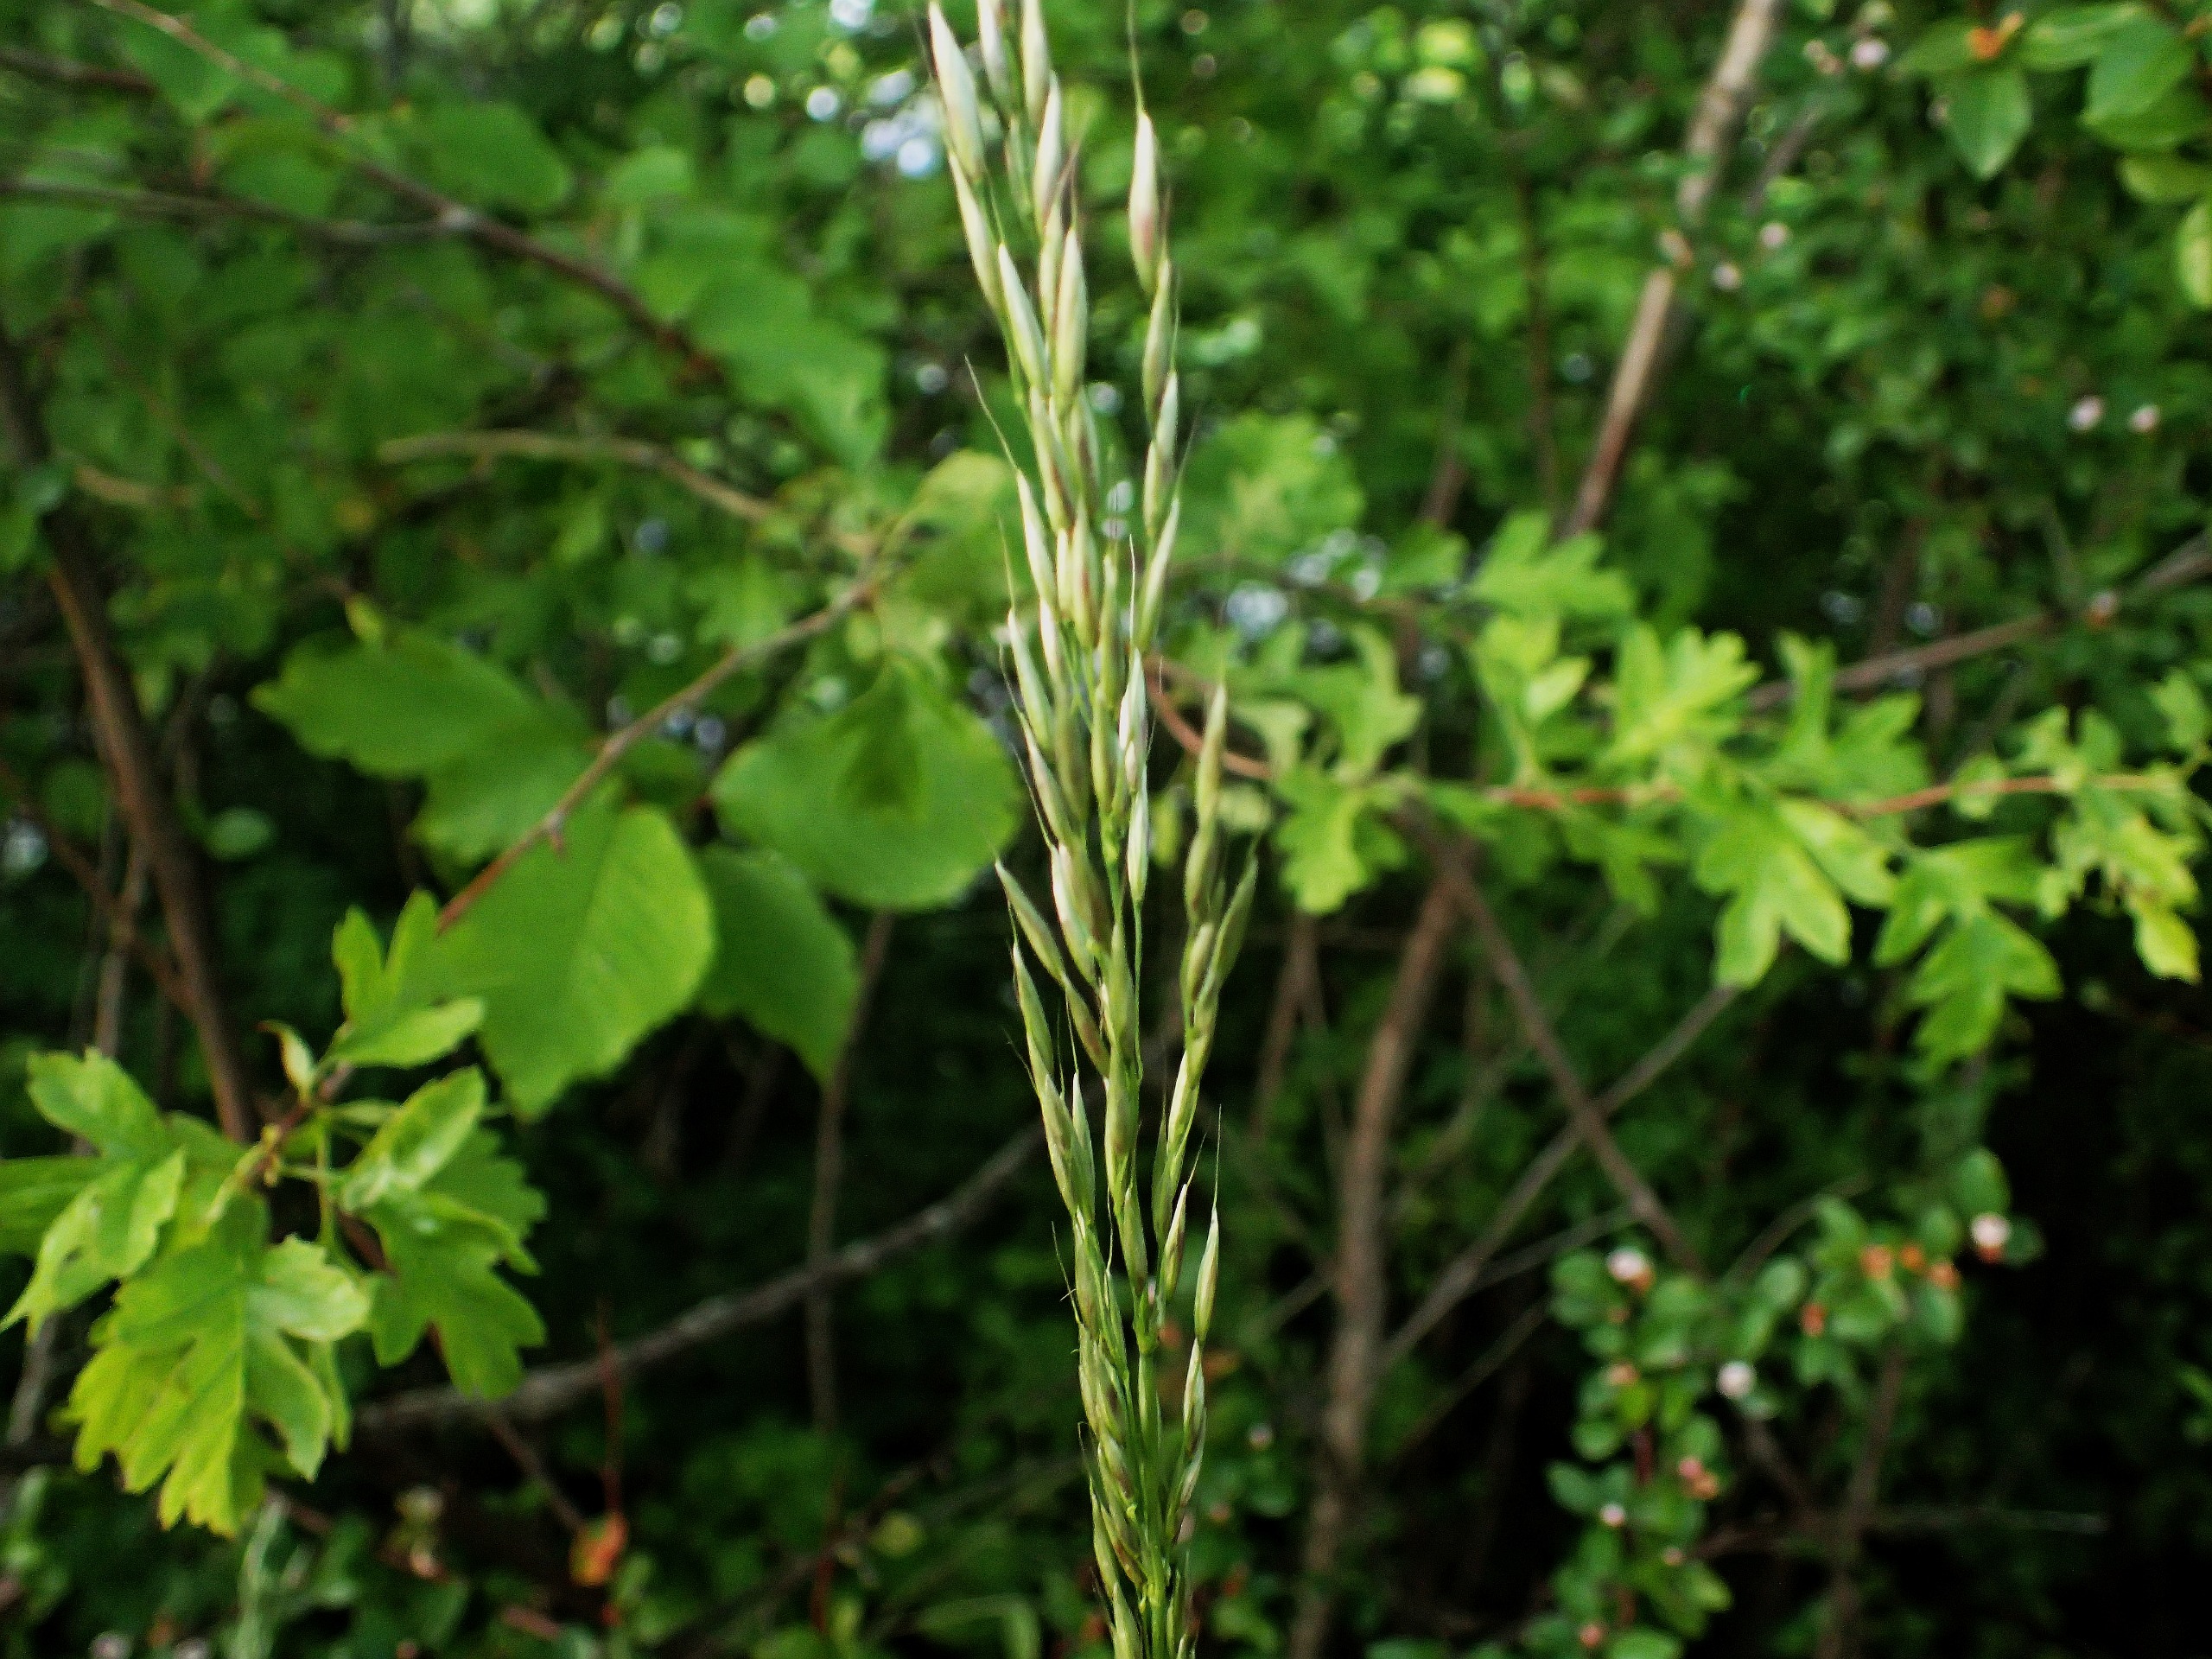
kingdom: Plantae
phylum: Tracheophyta
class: Liliopsida
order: Poales
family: Poaceae
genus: Arrhenatherum
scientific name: Arrhenatherum elatius
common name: Draphavre
